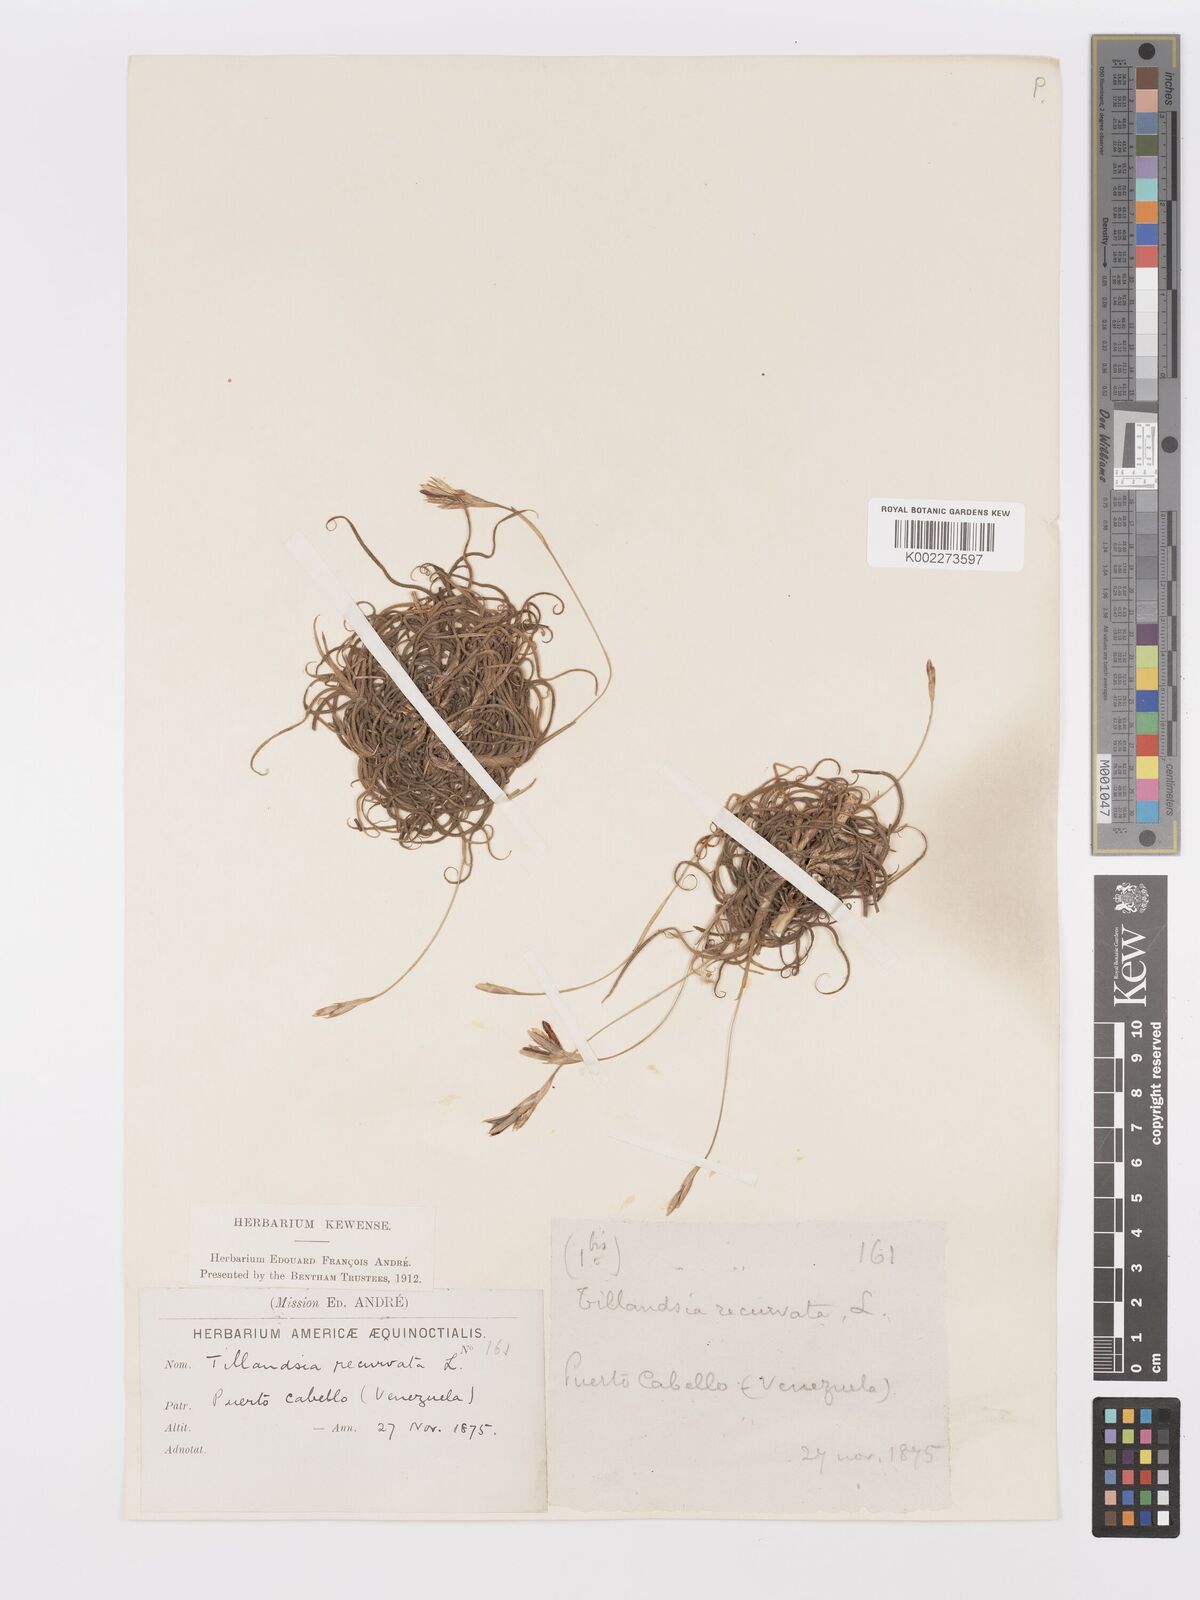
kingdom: Plantae
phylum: Tracheophyta
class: Liliopsida
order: Poales
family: Bromeliaceae
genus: Tillandsia
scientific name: Tillandsia recurvata
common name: Small ballmoss
